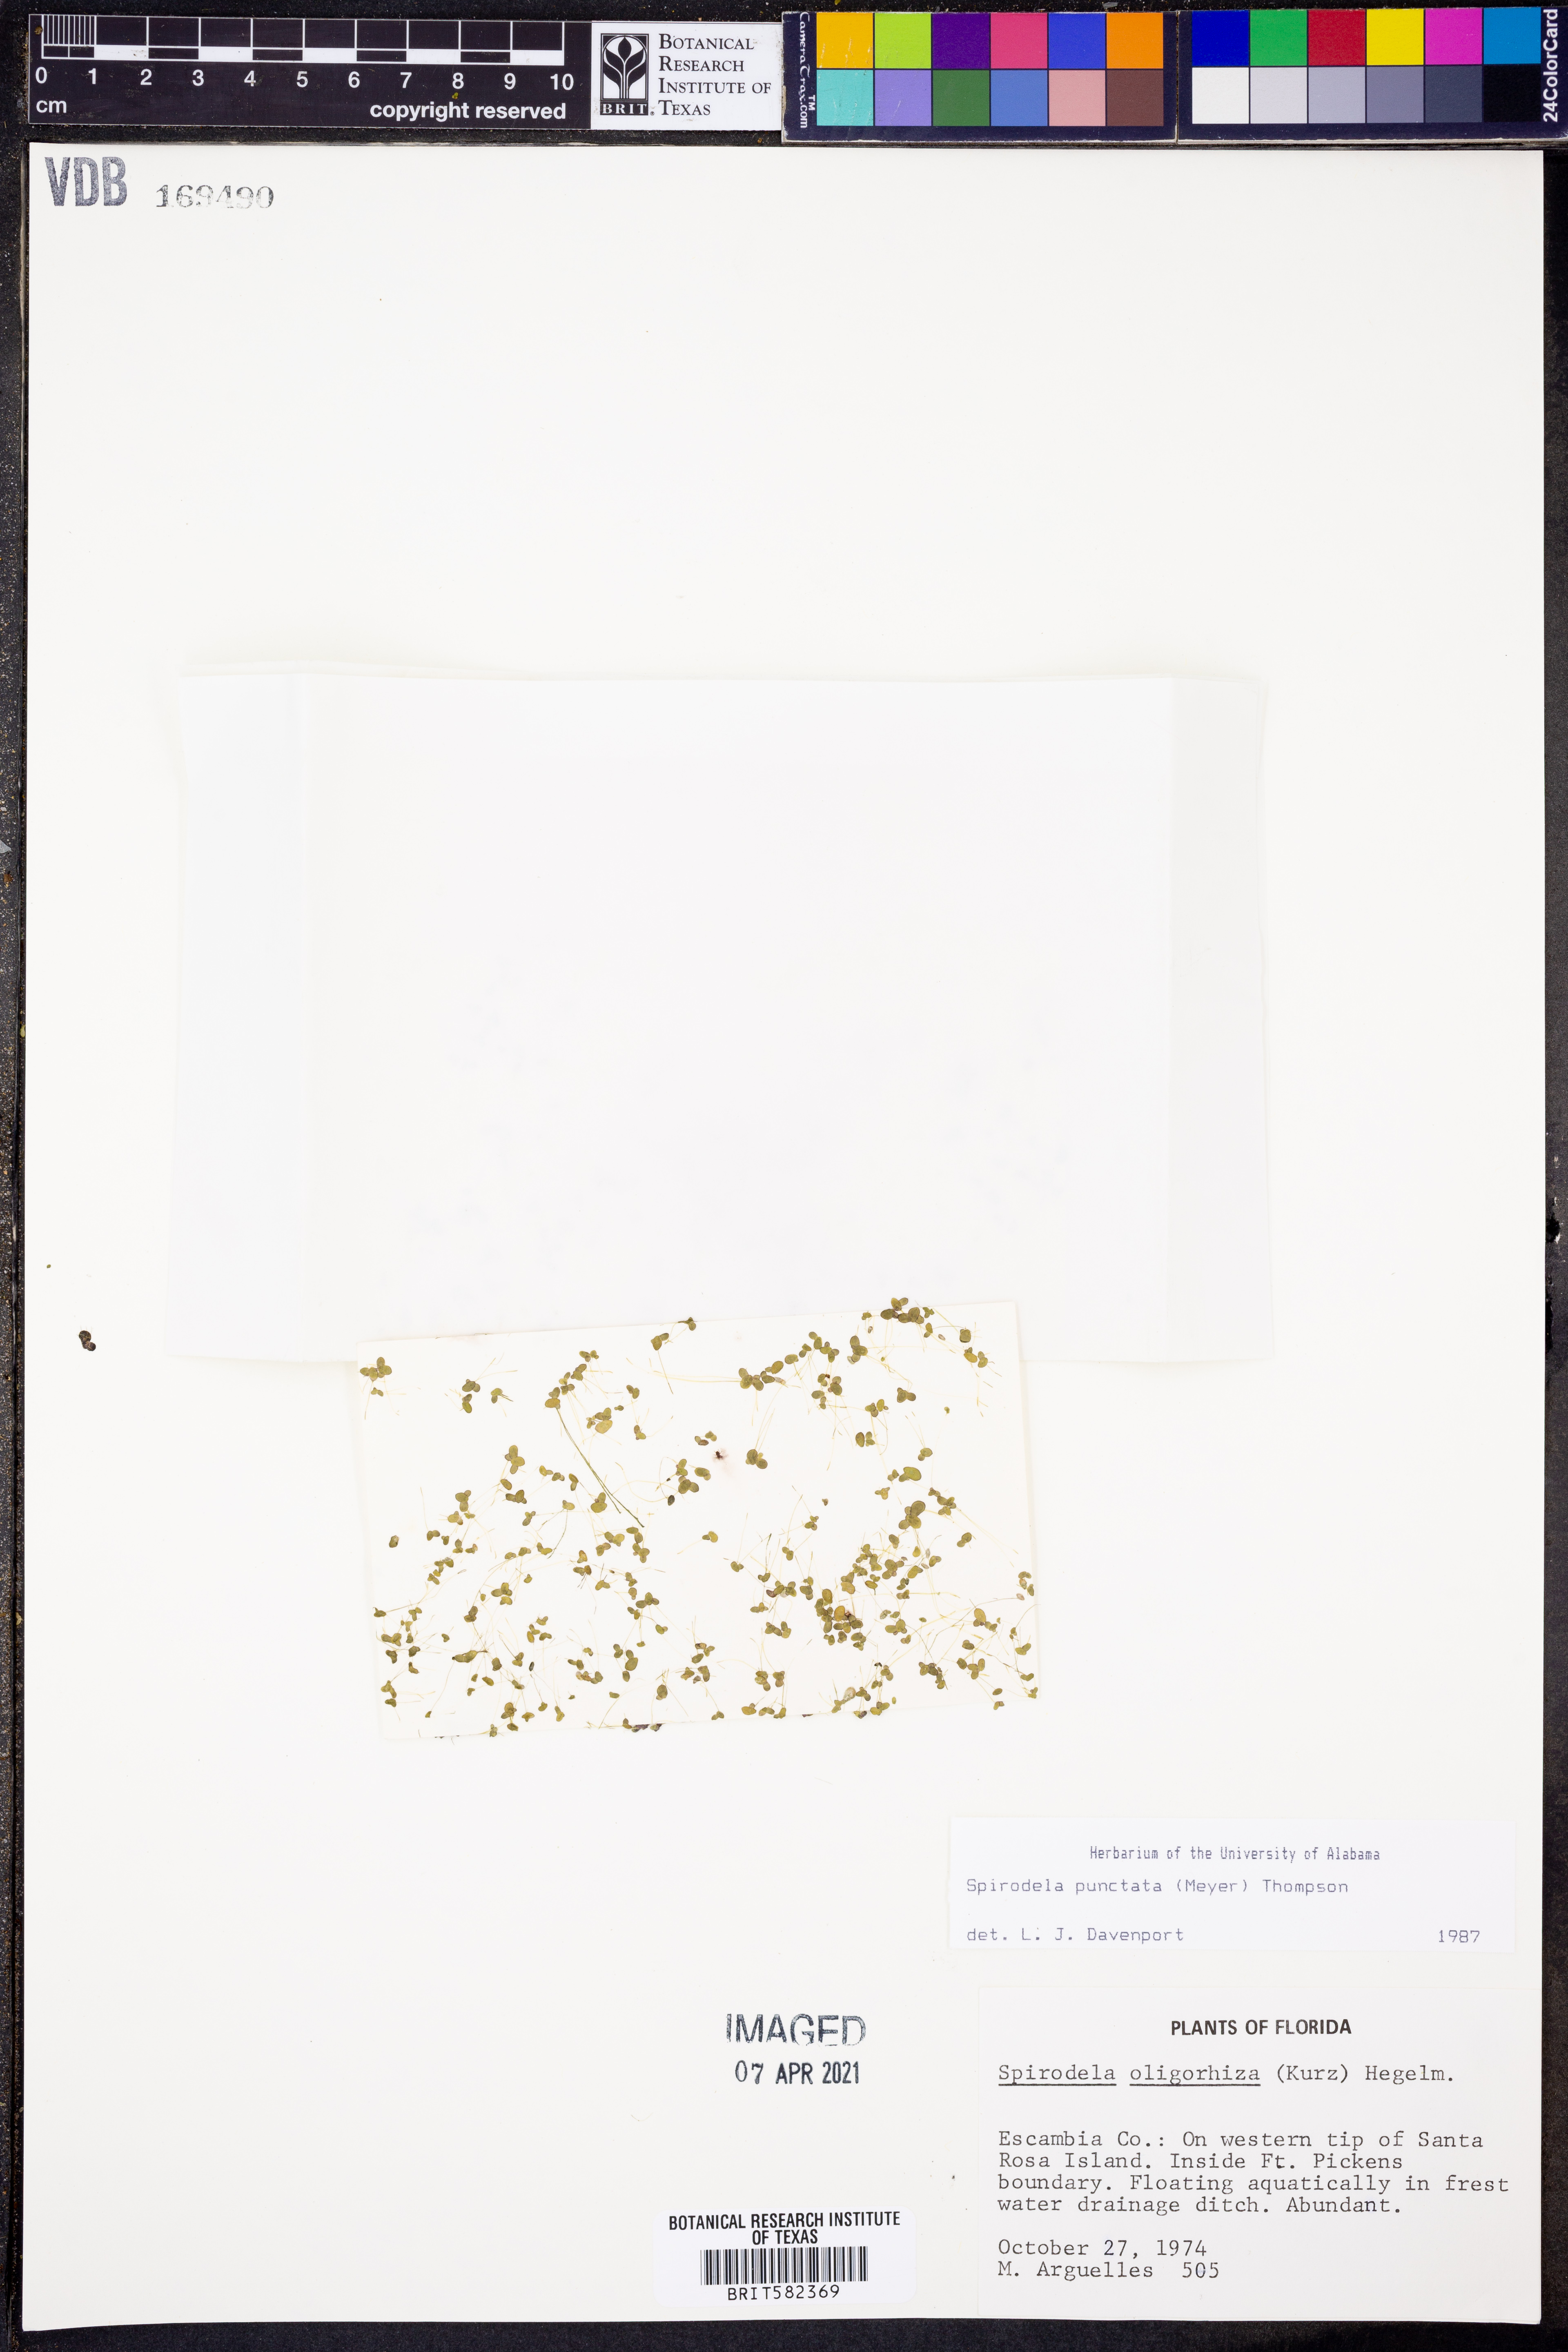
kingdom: Plantae
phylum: Tracheophyta
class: Liliopsida
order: Alismatales
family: Araceae
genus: Spirodela
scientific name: Spirodela punctata
